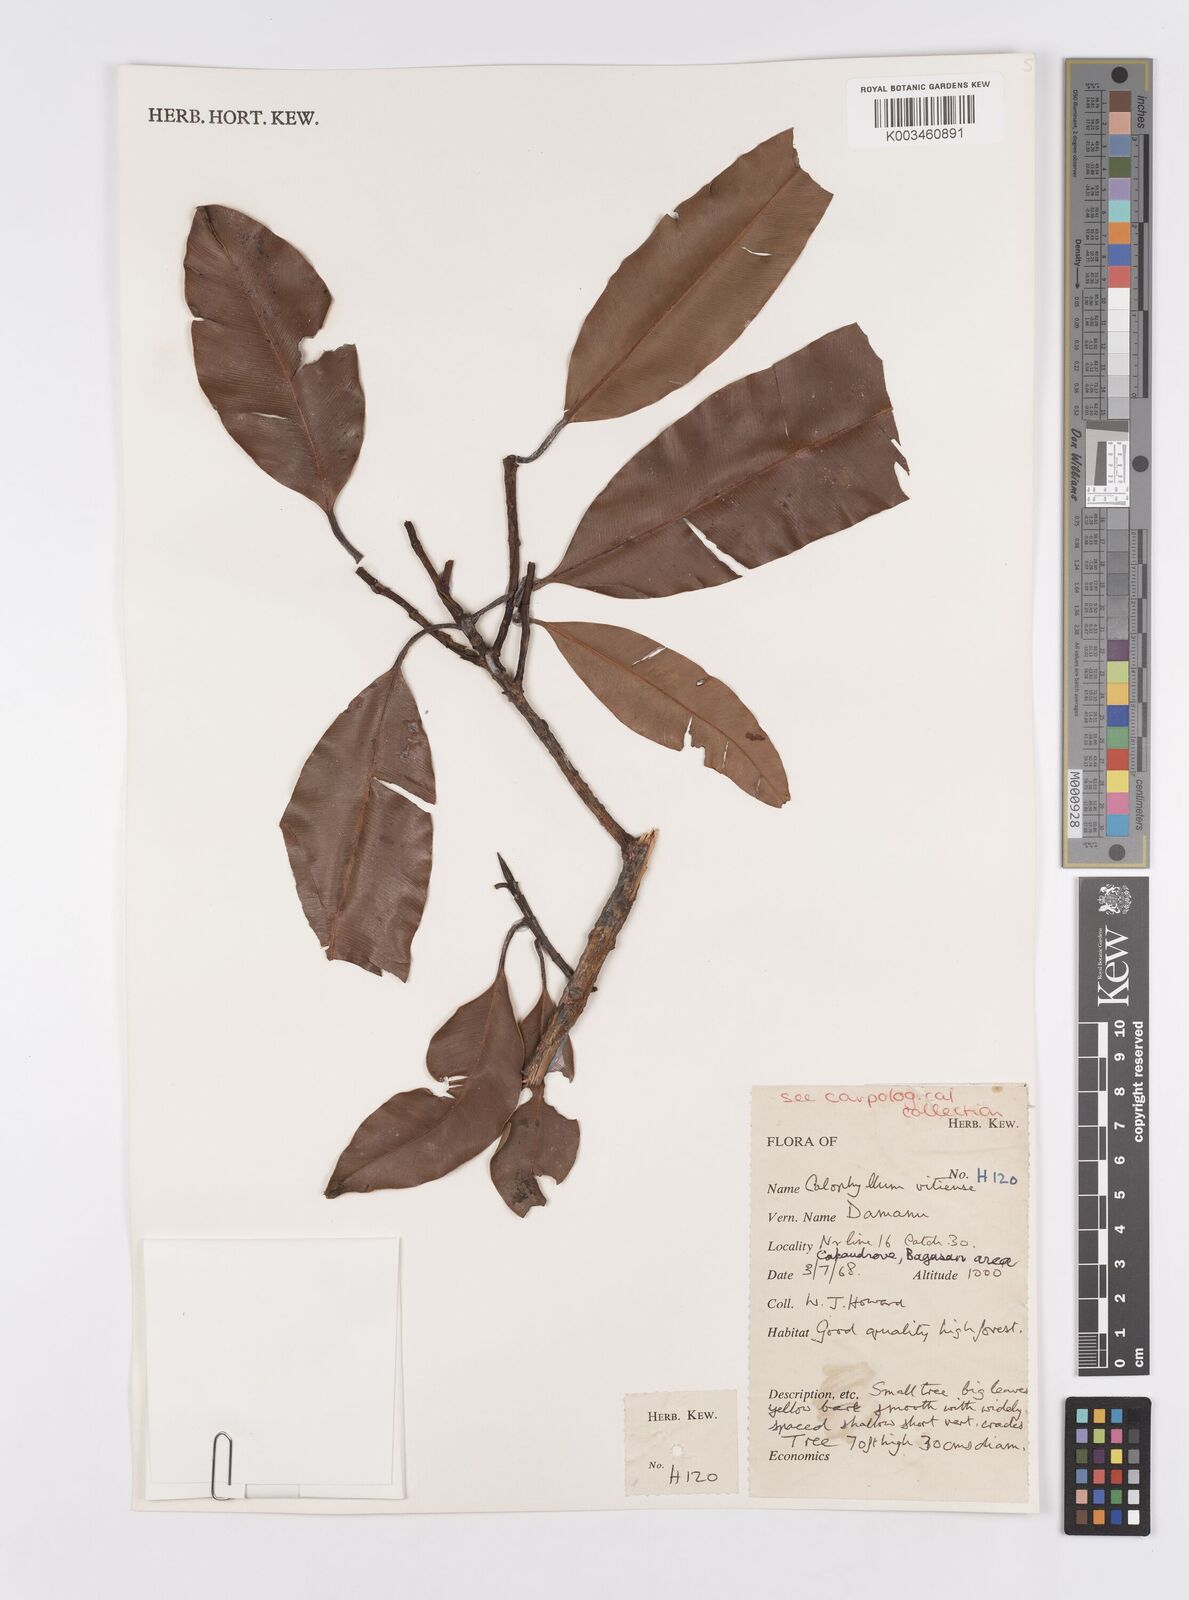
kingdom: Plantae
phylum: Tracheophyta
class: Magnoliopsida
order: Malpighiales
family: Calophyllaceae
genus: Calophyllum
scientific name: Calophyllum vitiense
